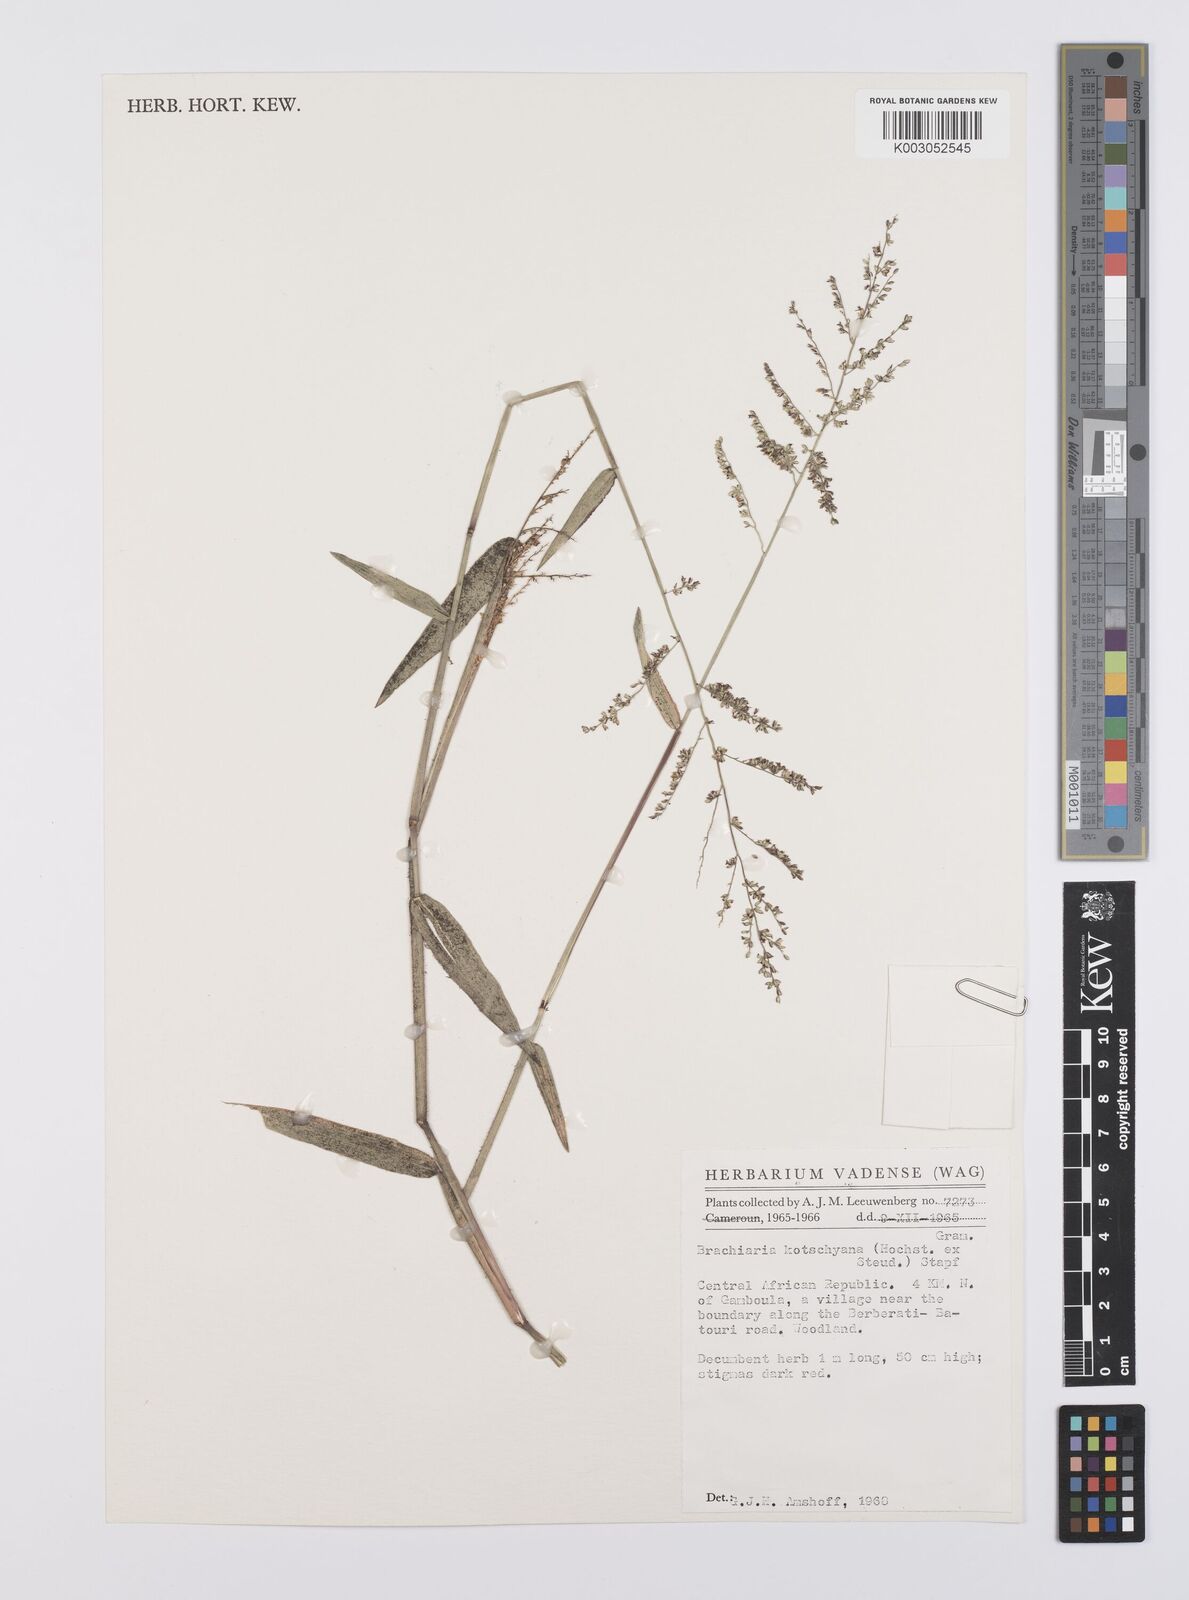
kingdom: Plantae
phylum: Tracheophyta
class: Liliopsida
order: Poales
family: Poaceae
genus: Urochloa
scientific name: Urochloa comata
